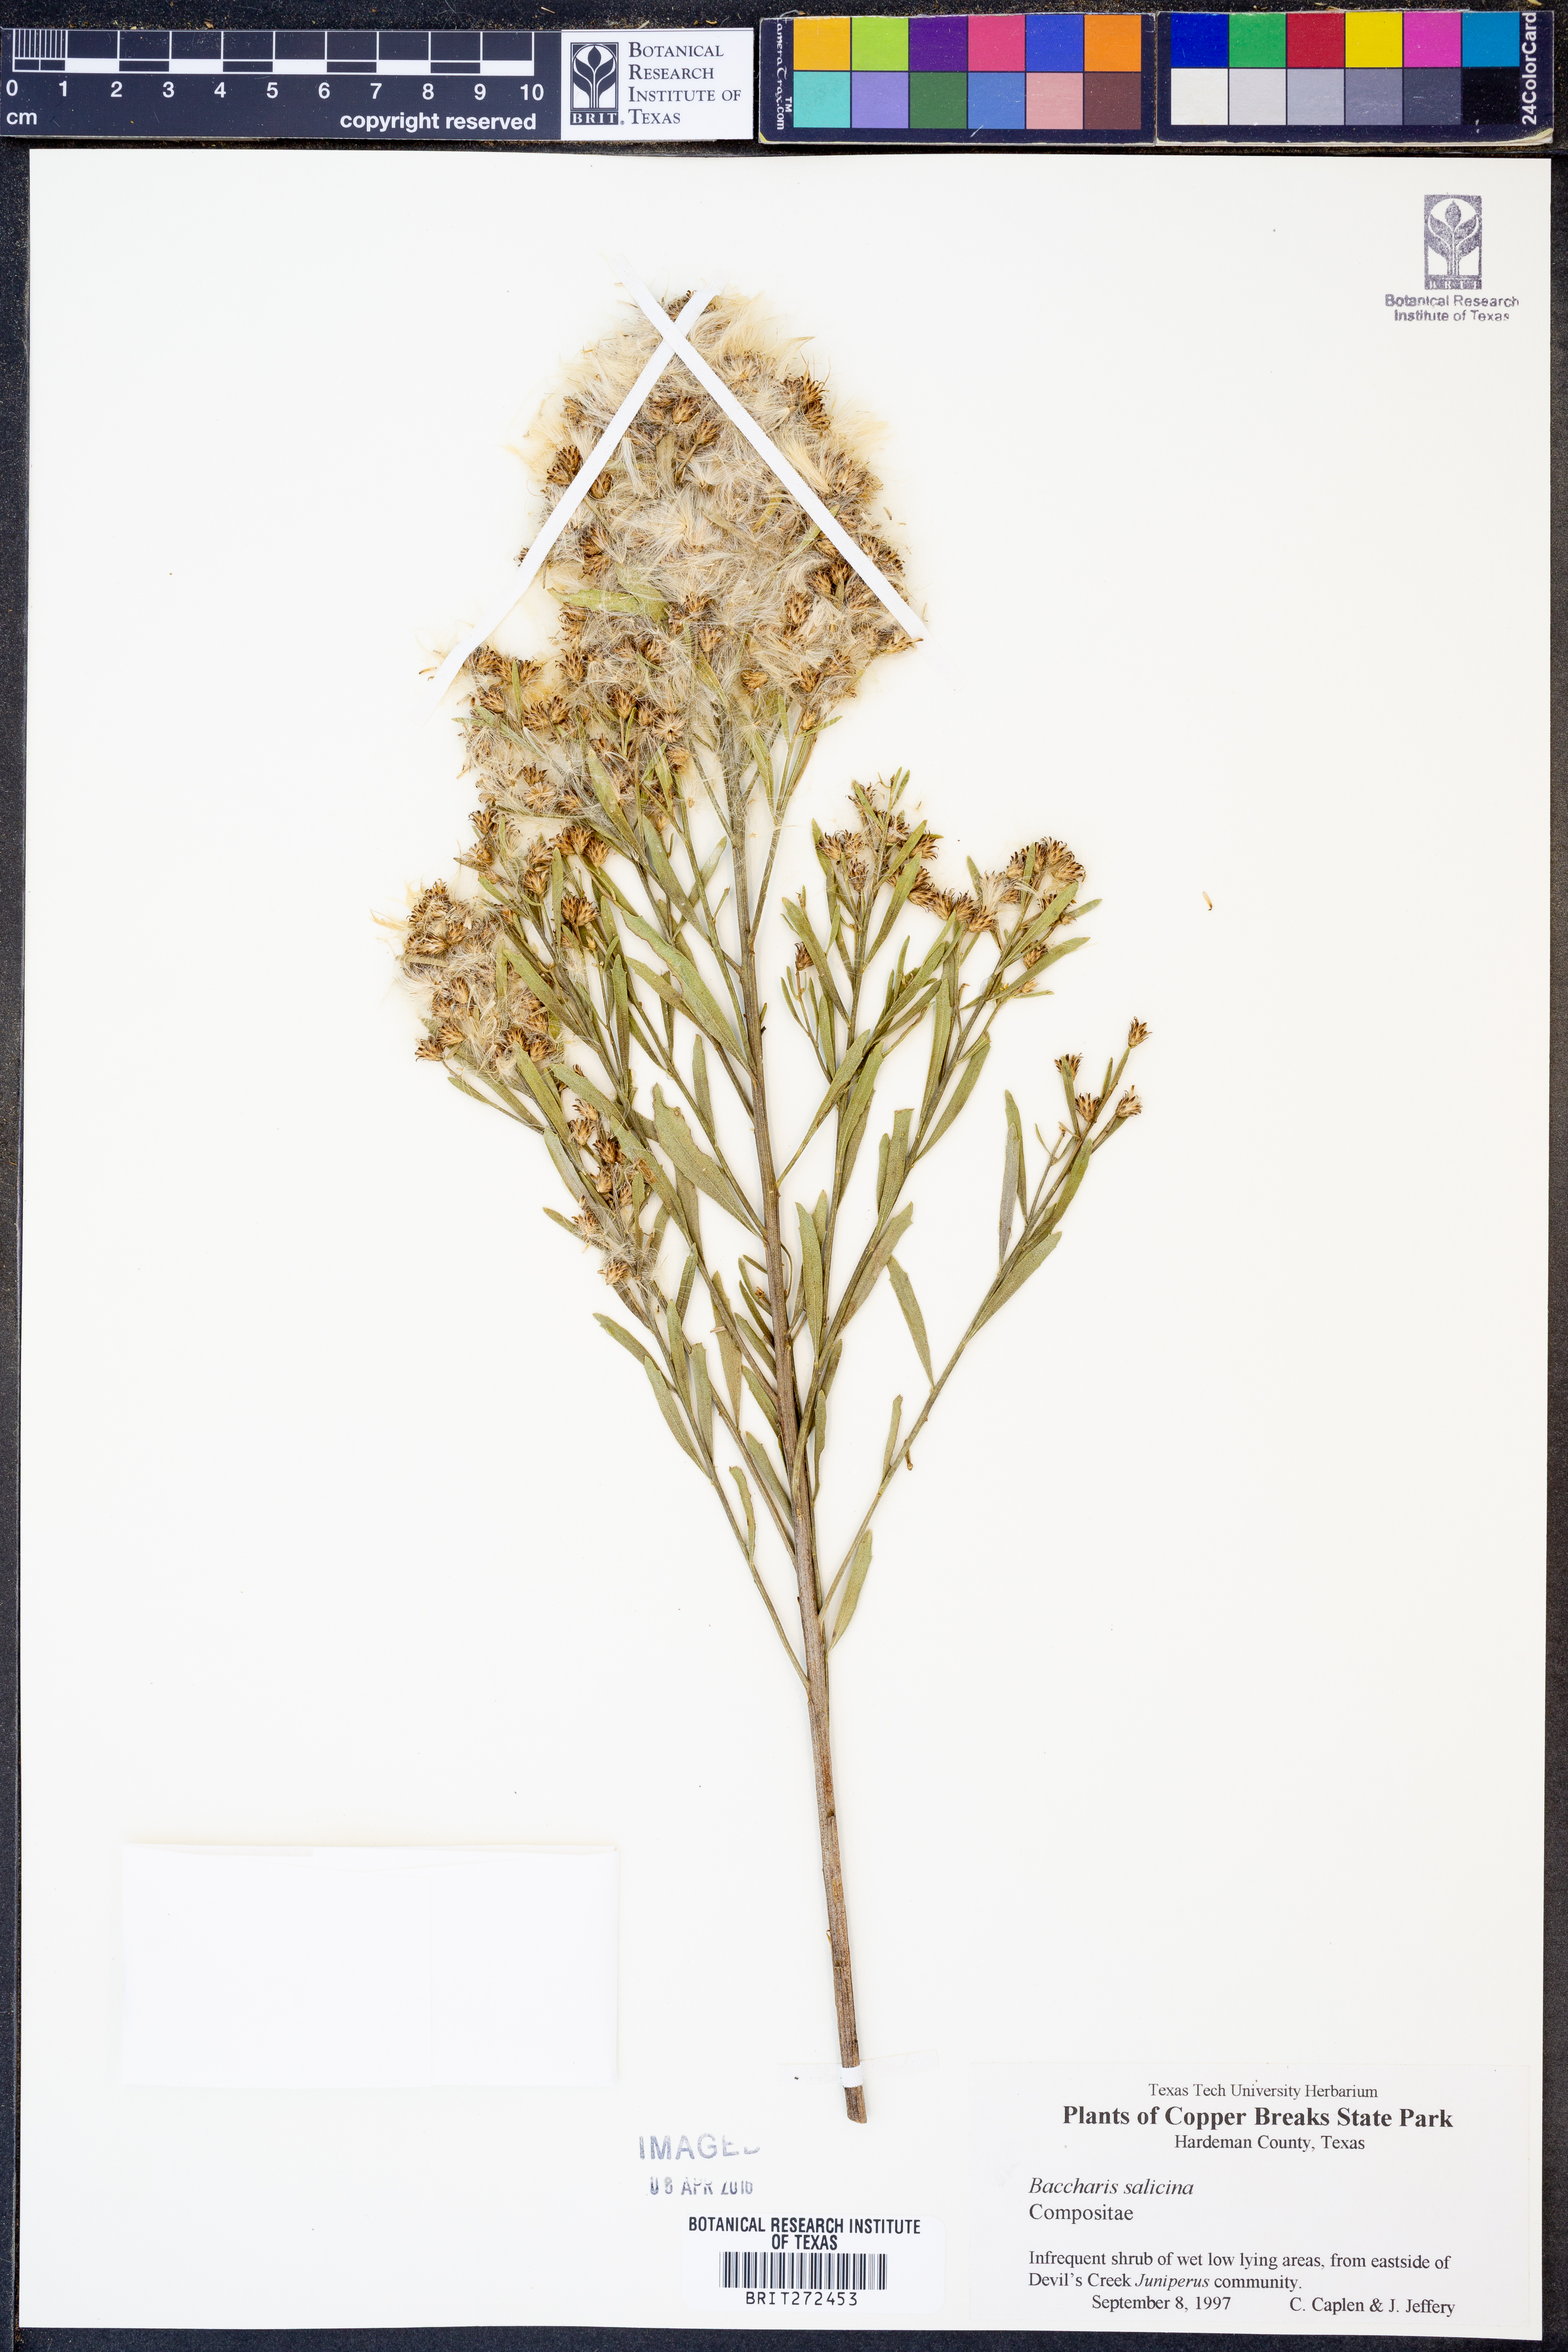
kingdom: Plantae
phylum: Tracheophyta
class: Magnoliopsida
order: Asterales
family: Asteraceae
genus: Baccharis
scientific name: Baccharis salicina
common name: Willow baccharis
